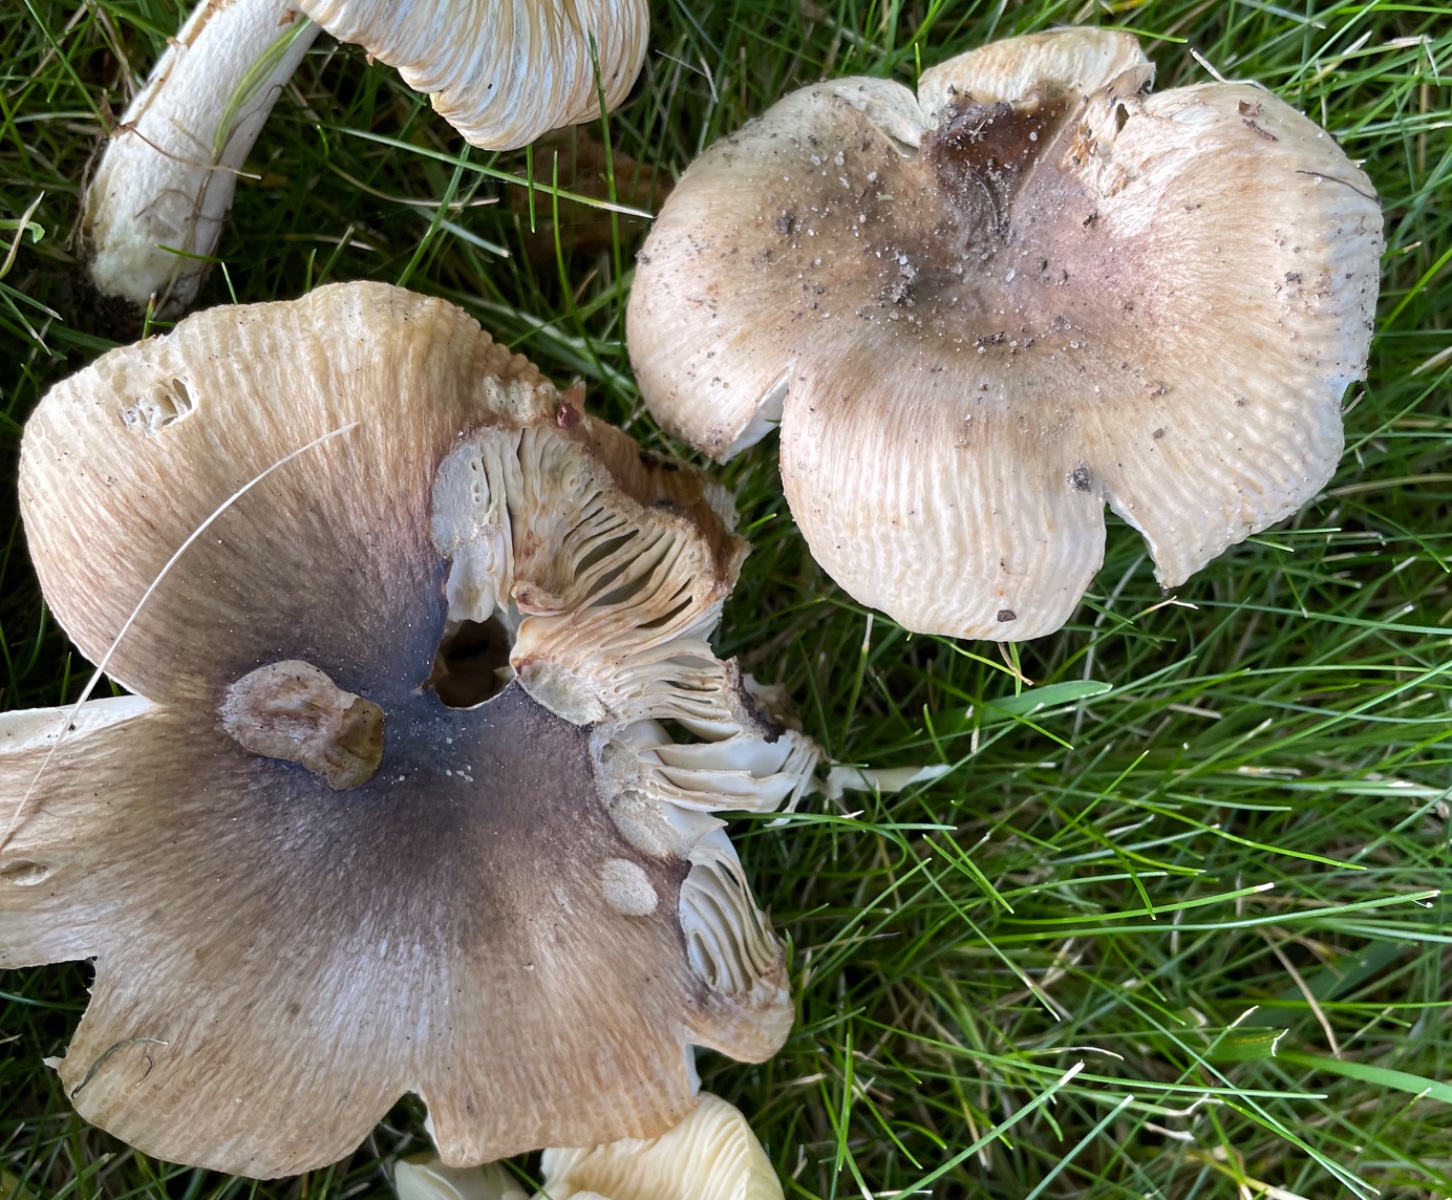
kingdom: Fungi
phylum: Basidiomycota
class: Agaricomycetes
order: Russulales
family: Russulaceae
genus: Russula
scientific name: Russula recondita
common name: mild kam-skørhat
